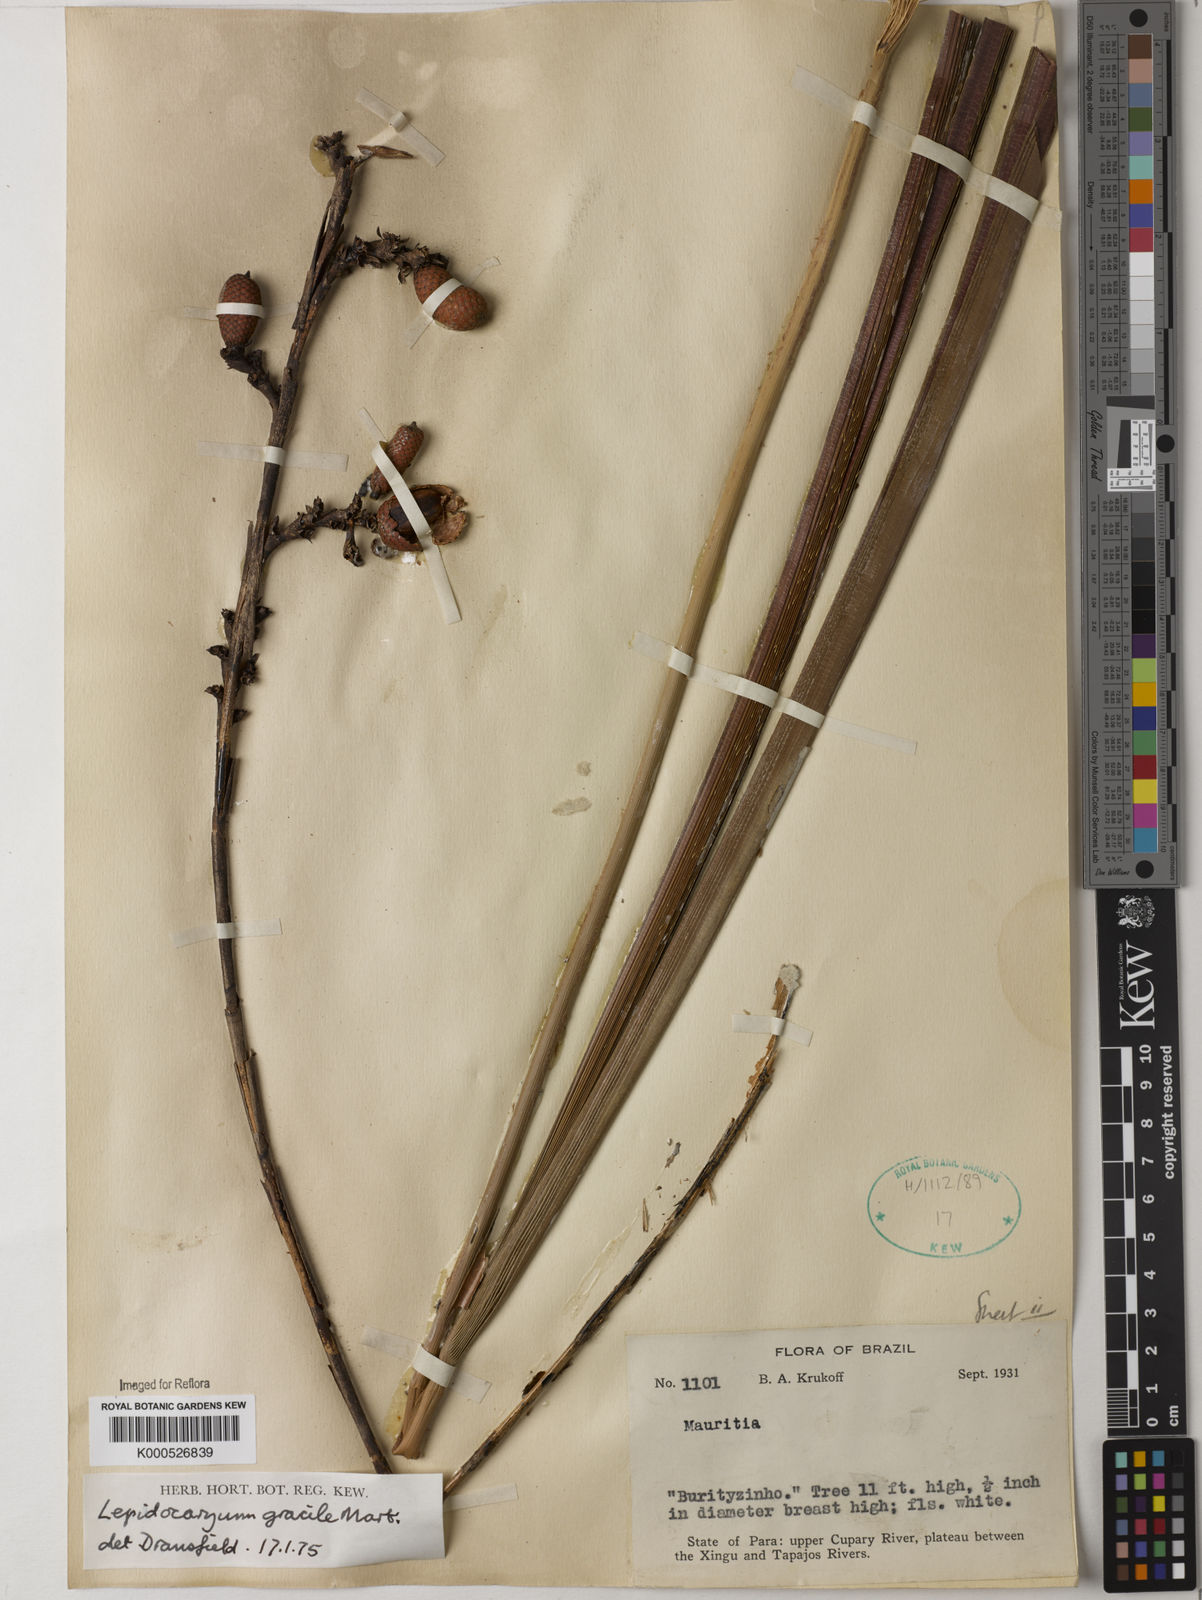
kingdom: Plantae
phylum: Tracheophyta
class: Liliopsida
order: Arecales
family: Arecaceae
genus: Lepidocaryum
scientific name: Lepidocaryum tenue
